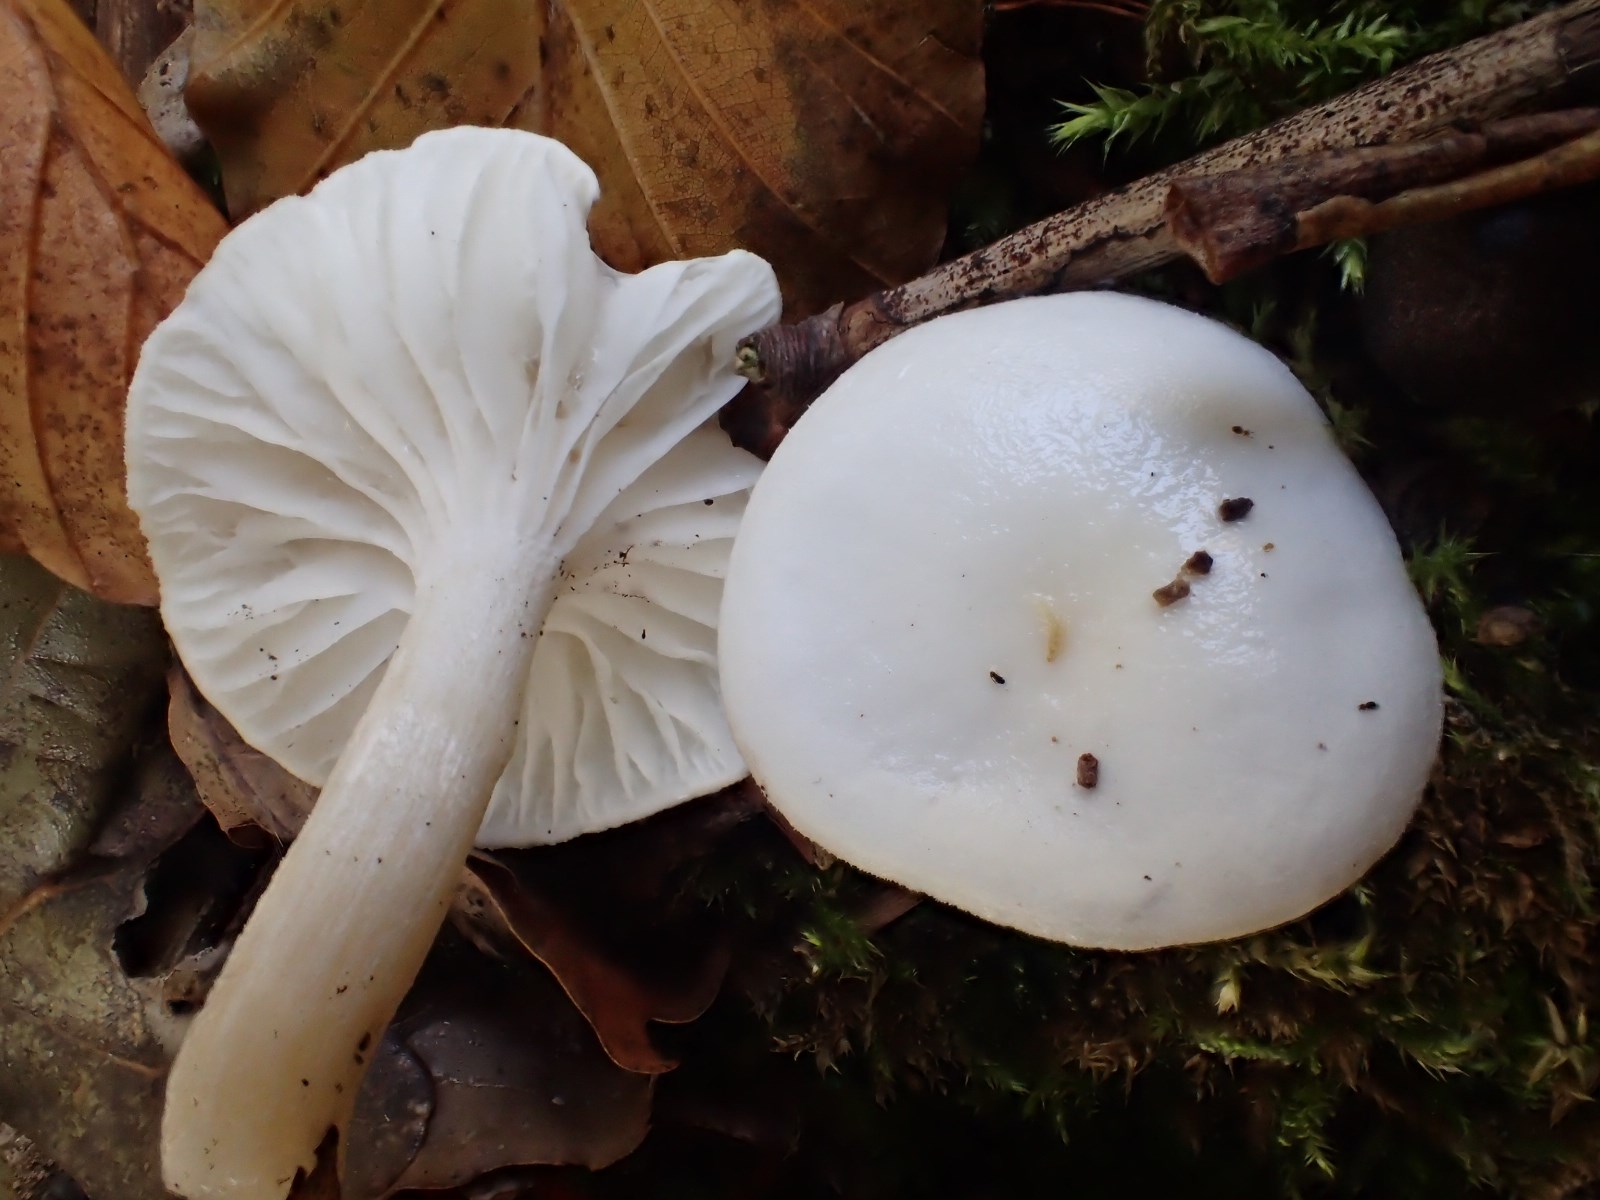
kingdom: Fungi
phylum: Basidiomycota
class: Agaricomycetes
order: Agaricales
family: Hygrophoraceae
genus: Hygrophorus
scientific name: Hygrophorus discoxanthus
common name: ildelugtende sneglehat
